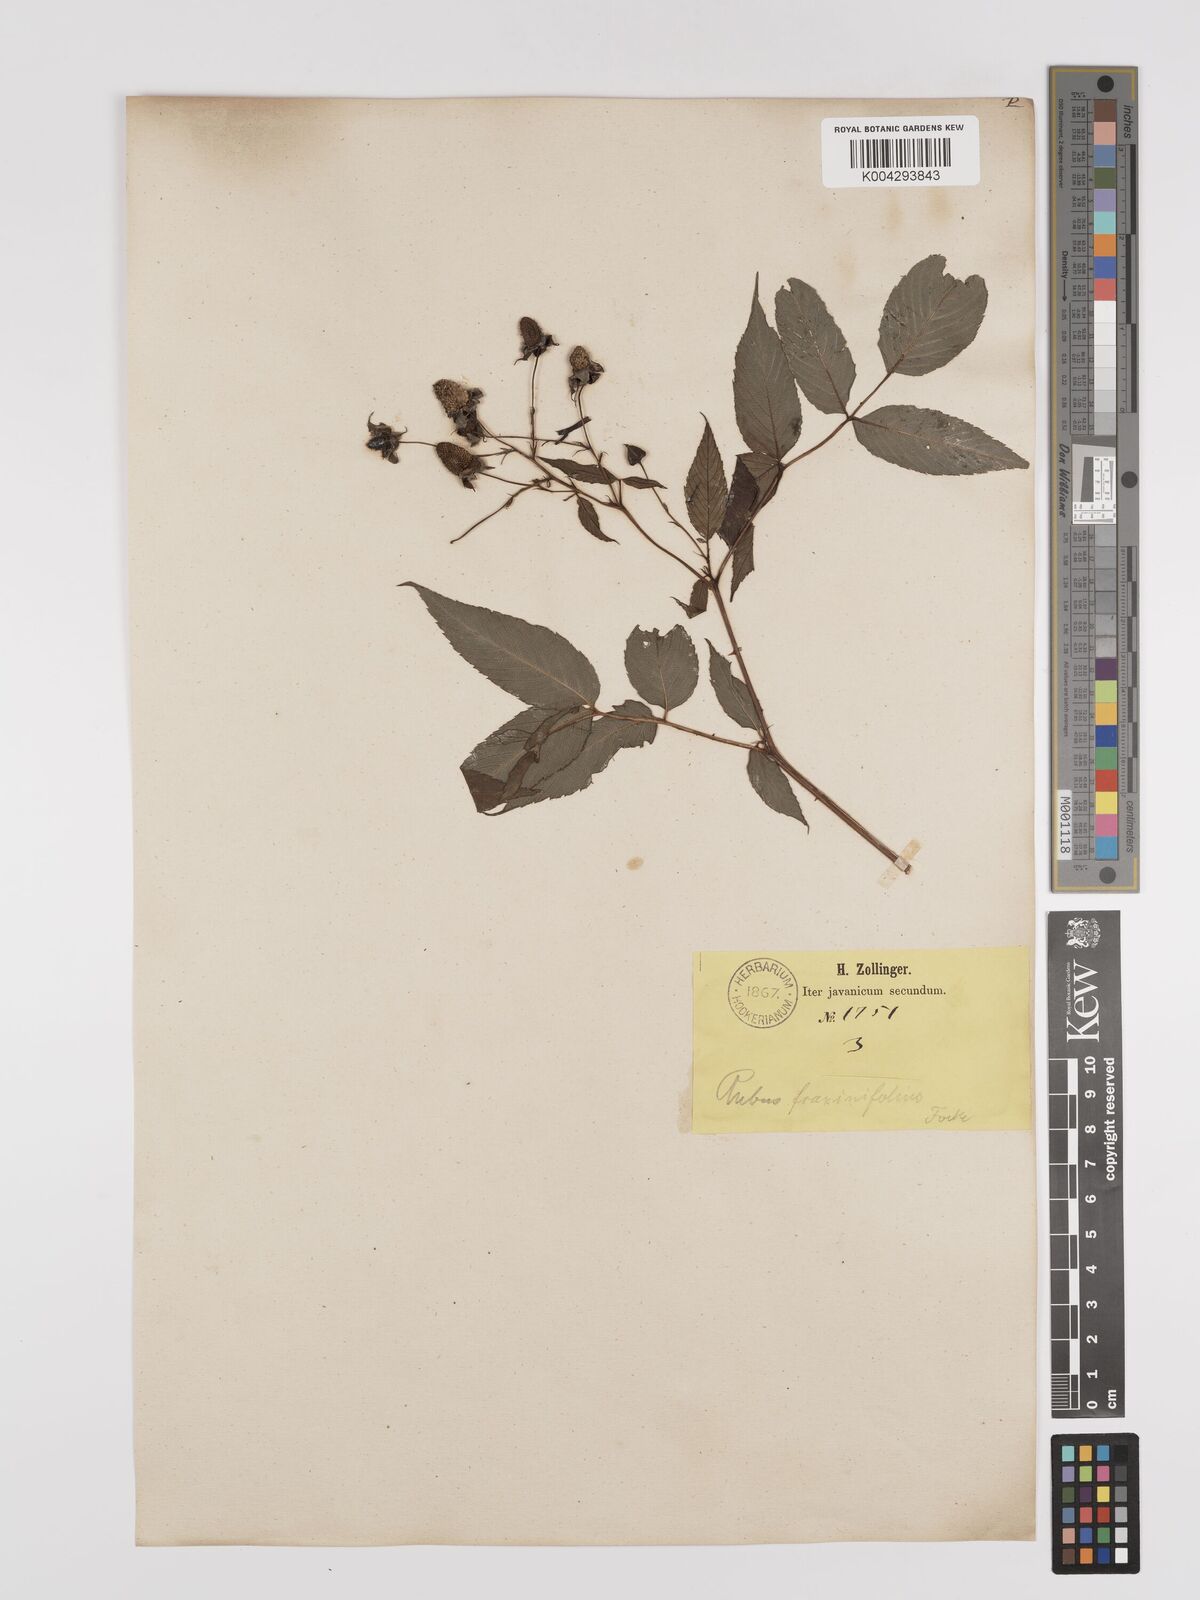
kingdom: Plantae
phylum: Tracheophyta
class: Magnoliopsida
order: Rosales
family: Rosaceae
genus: Rubus
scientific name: Rubus fraxinifolius
